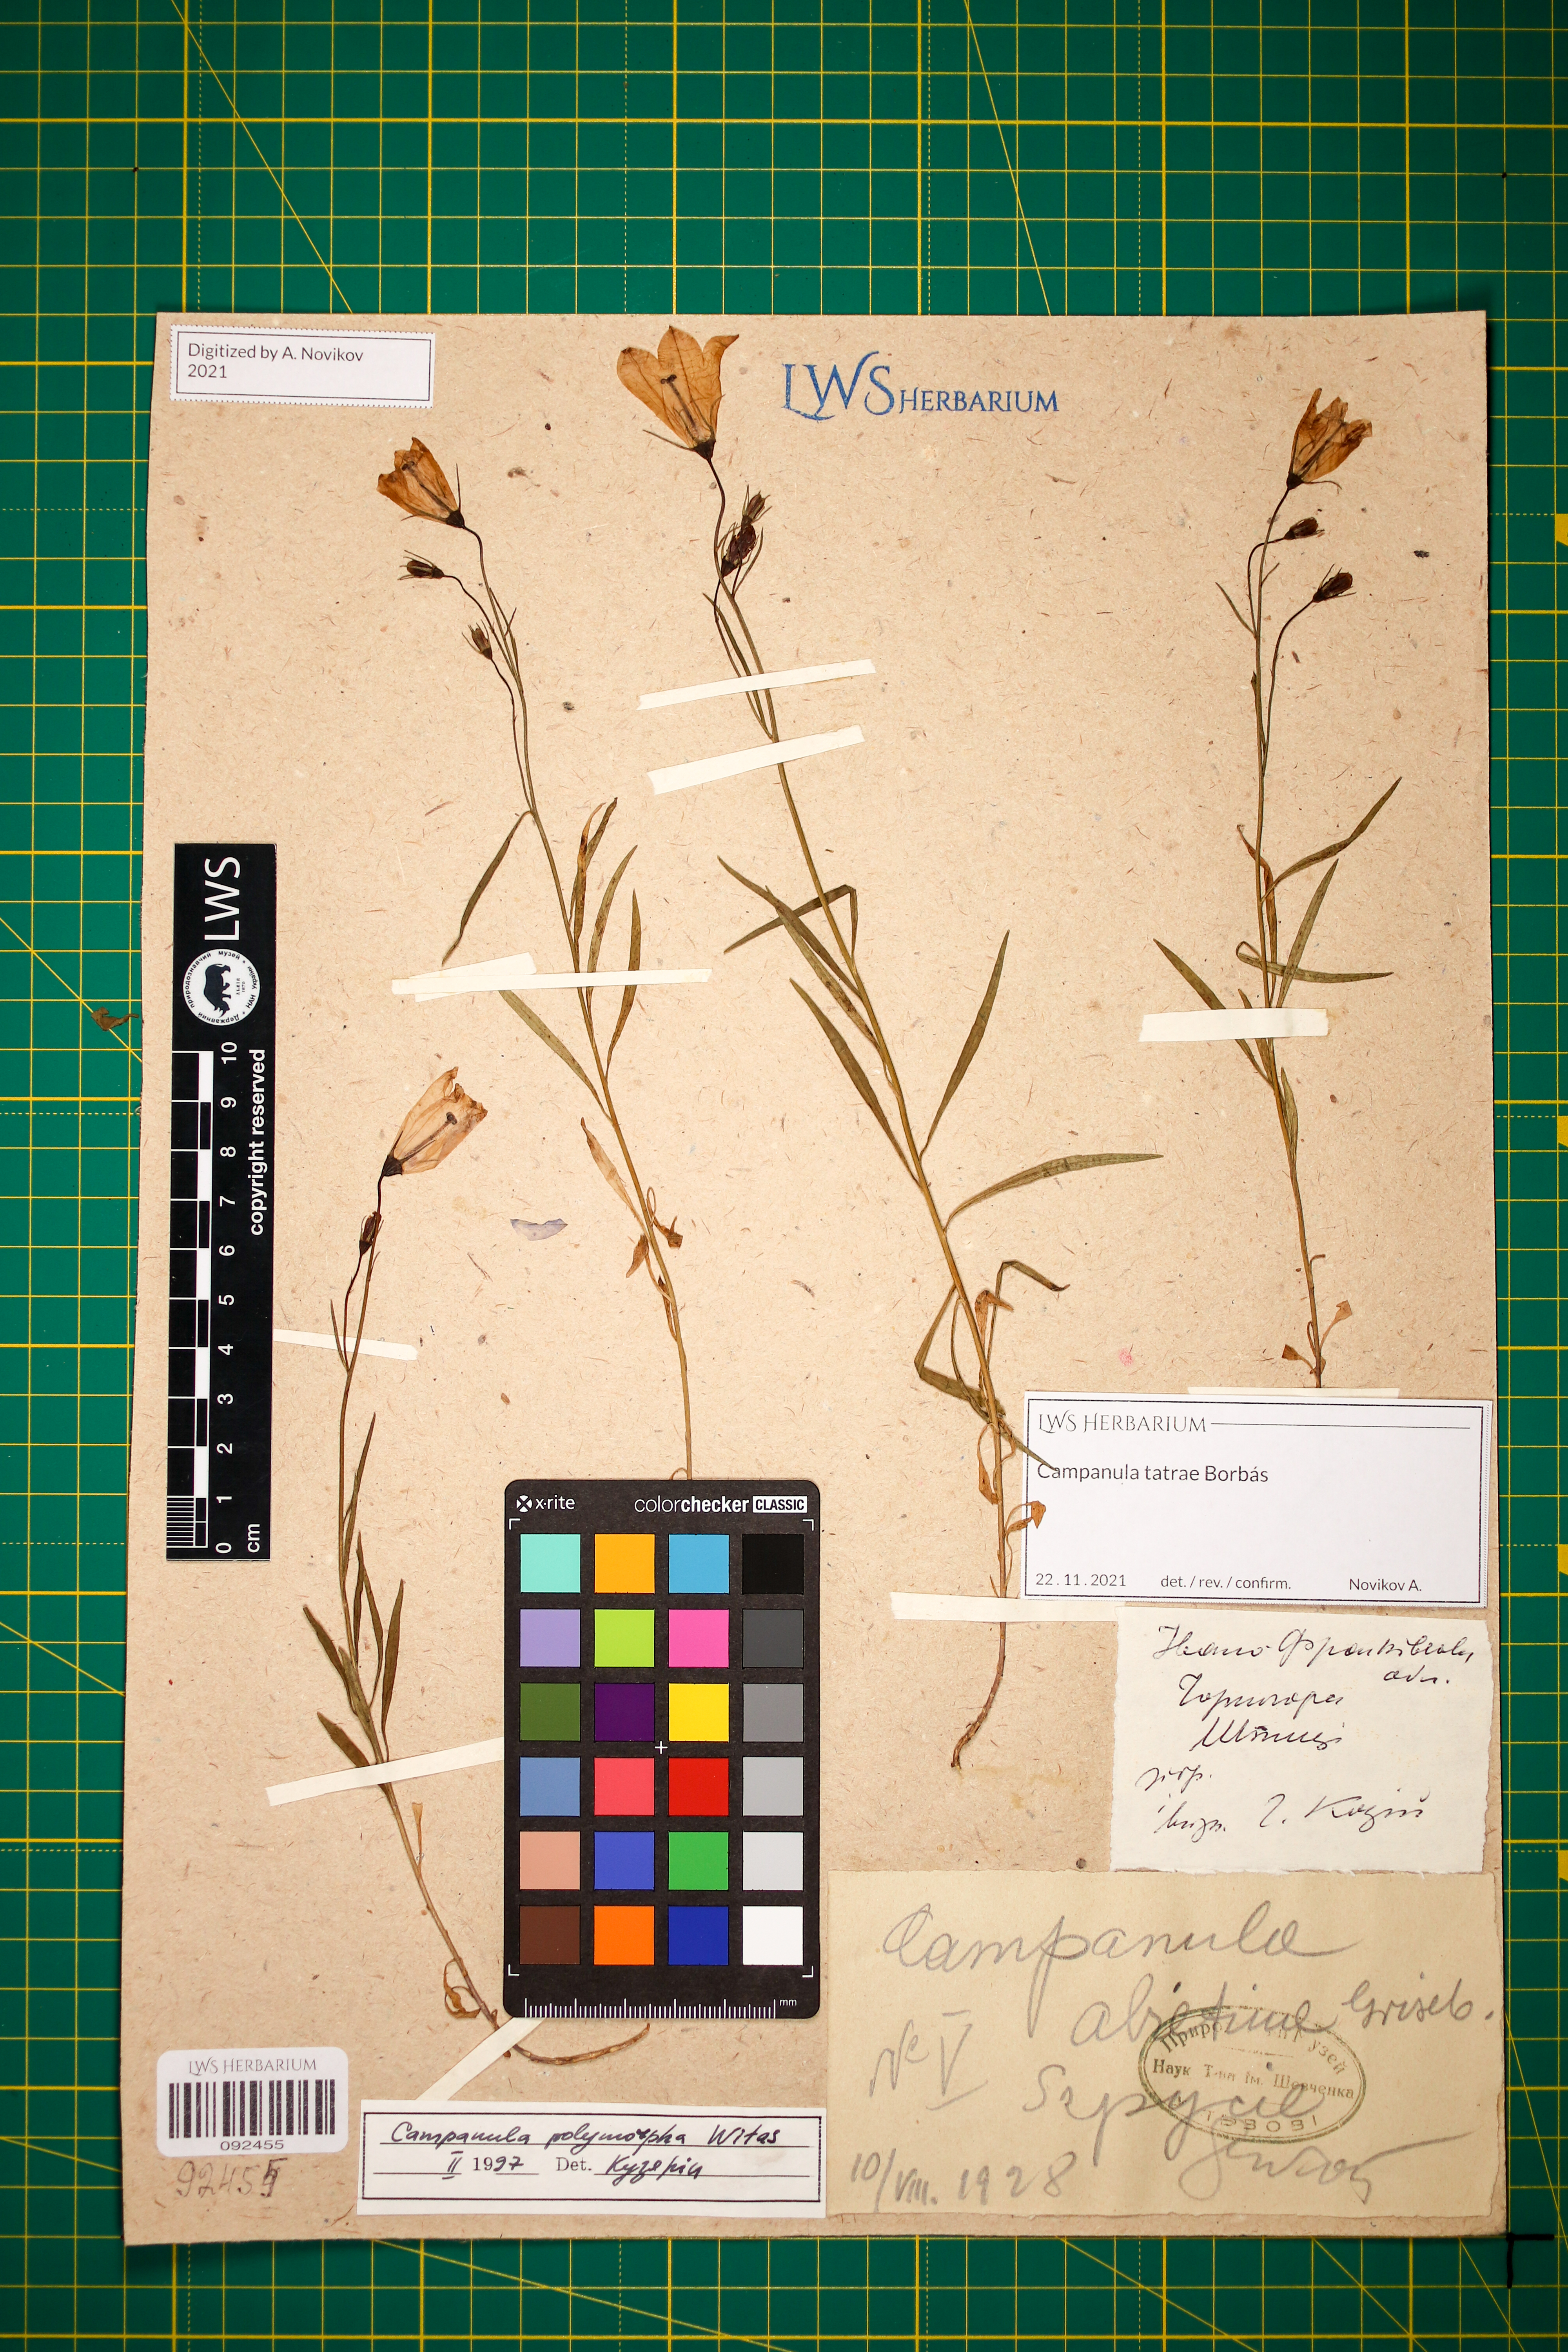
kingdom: Plantae
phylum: Tracheophyta
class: Magnoliopsida
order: Asterales
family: Campanulaceae
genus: Campanula
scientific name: Campanula tatrae
